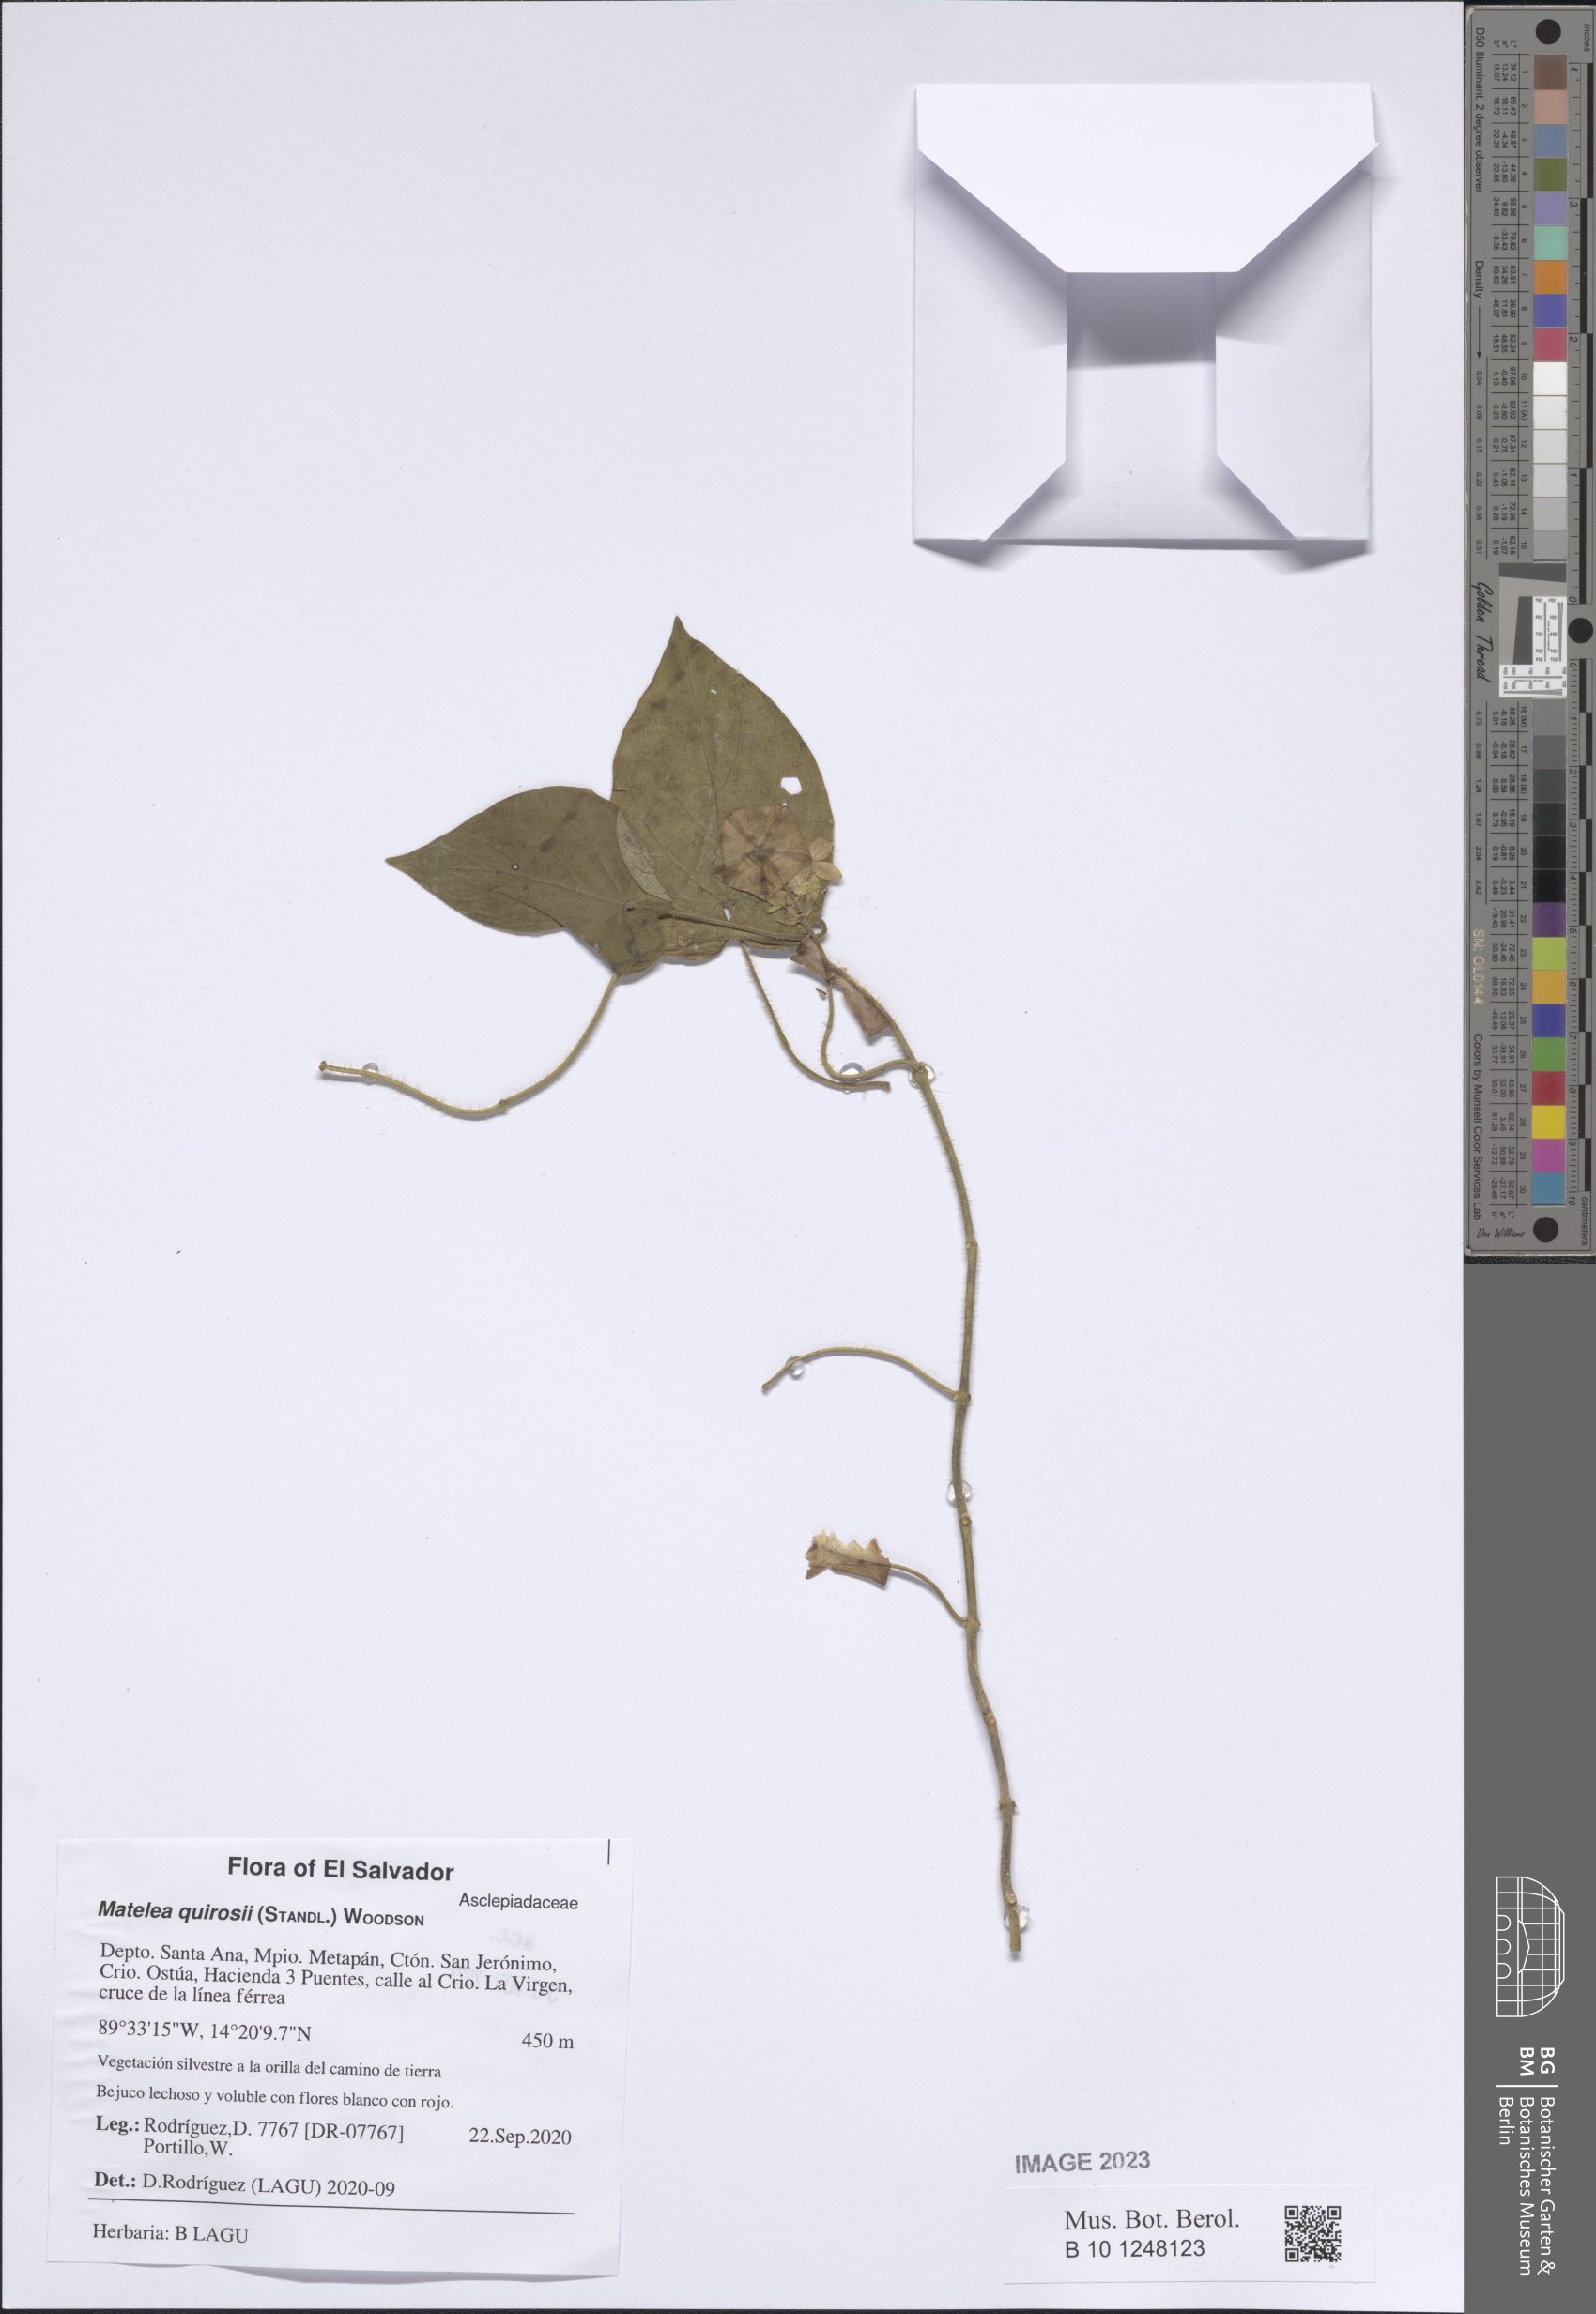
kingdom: Plantae
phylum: Tracheophyta
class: Magnoliopsida
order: Gentianales
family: Apocynaceae
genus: Polystemma
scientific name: Polystemma guatemalense
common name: Arborescente rattan
